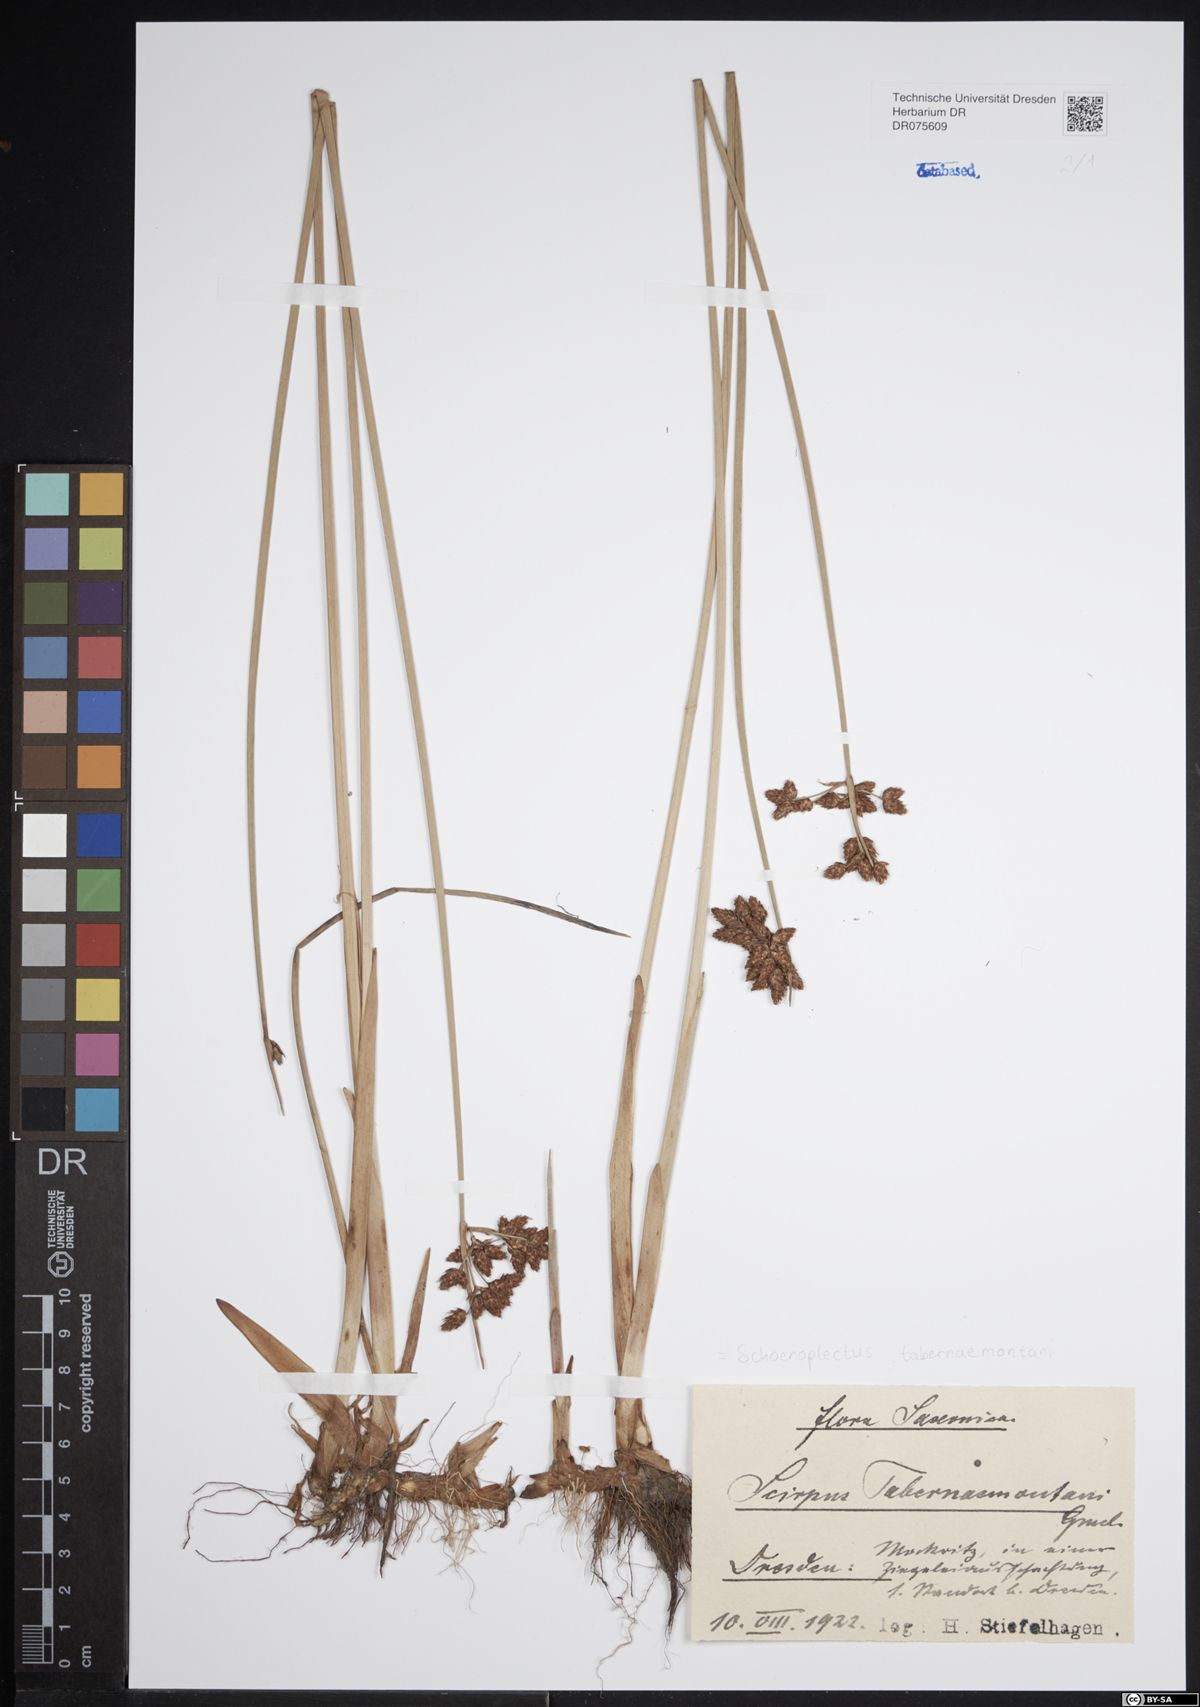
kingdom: Plantae
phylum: Tracheophyta
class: Liliopsida
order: Poales
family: Cyperaceae
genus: Schoenoplectus
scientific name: Schoenoplectus tabernaemontani
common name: Grey club-rush
